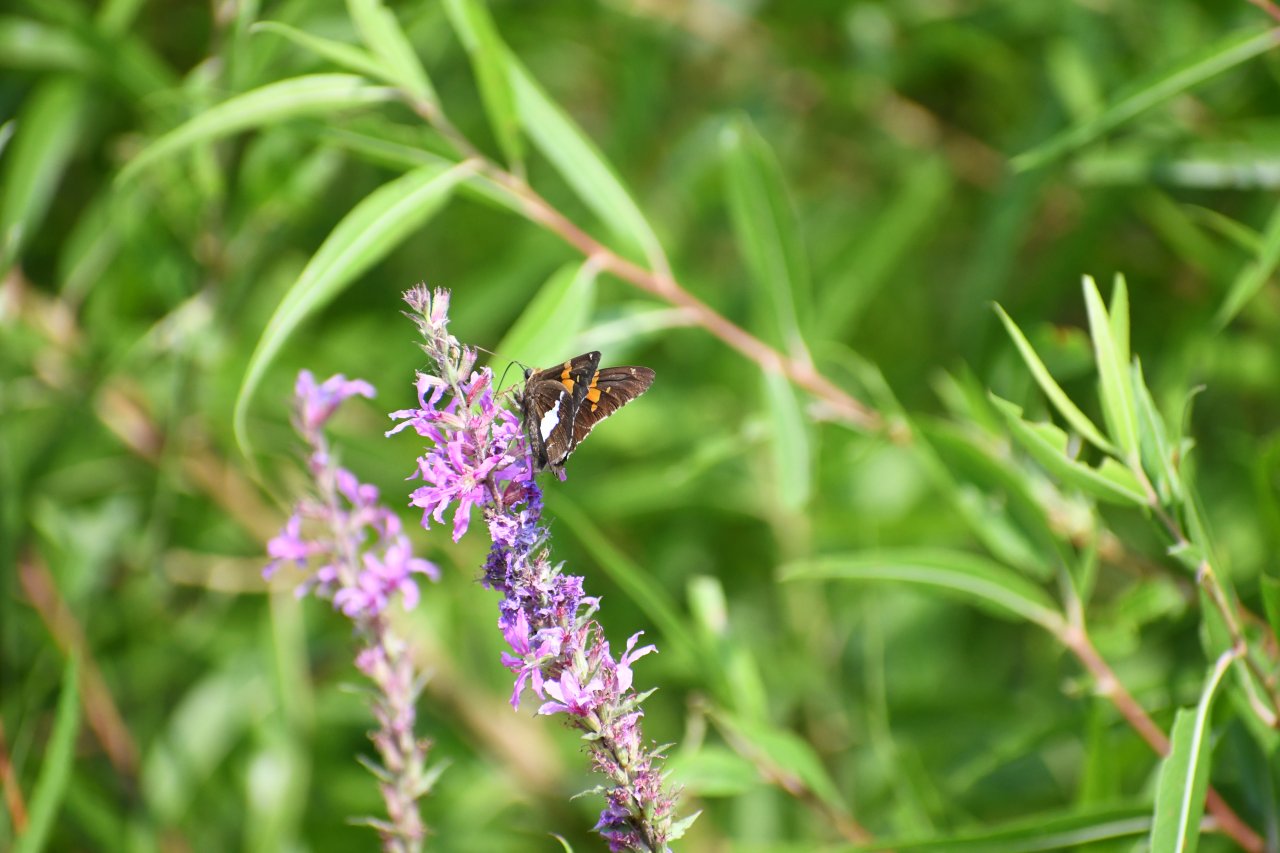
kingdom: Animalia
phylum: Arthropoda
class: Insecta
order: Lepidoptera
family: Hesperiidae
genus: Epargyreus
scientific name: Epargyreus clarus
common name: Silver-spotted Skipper
